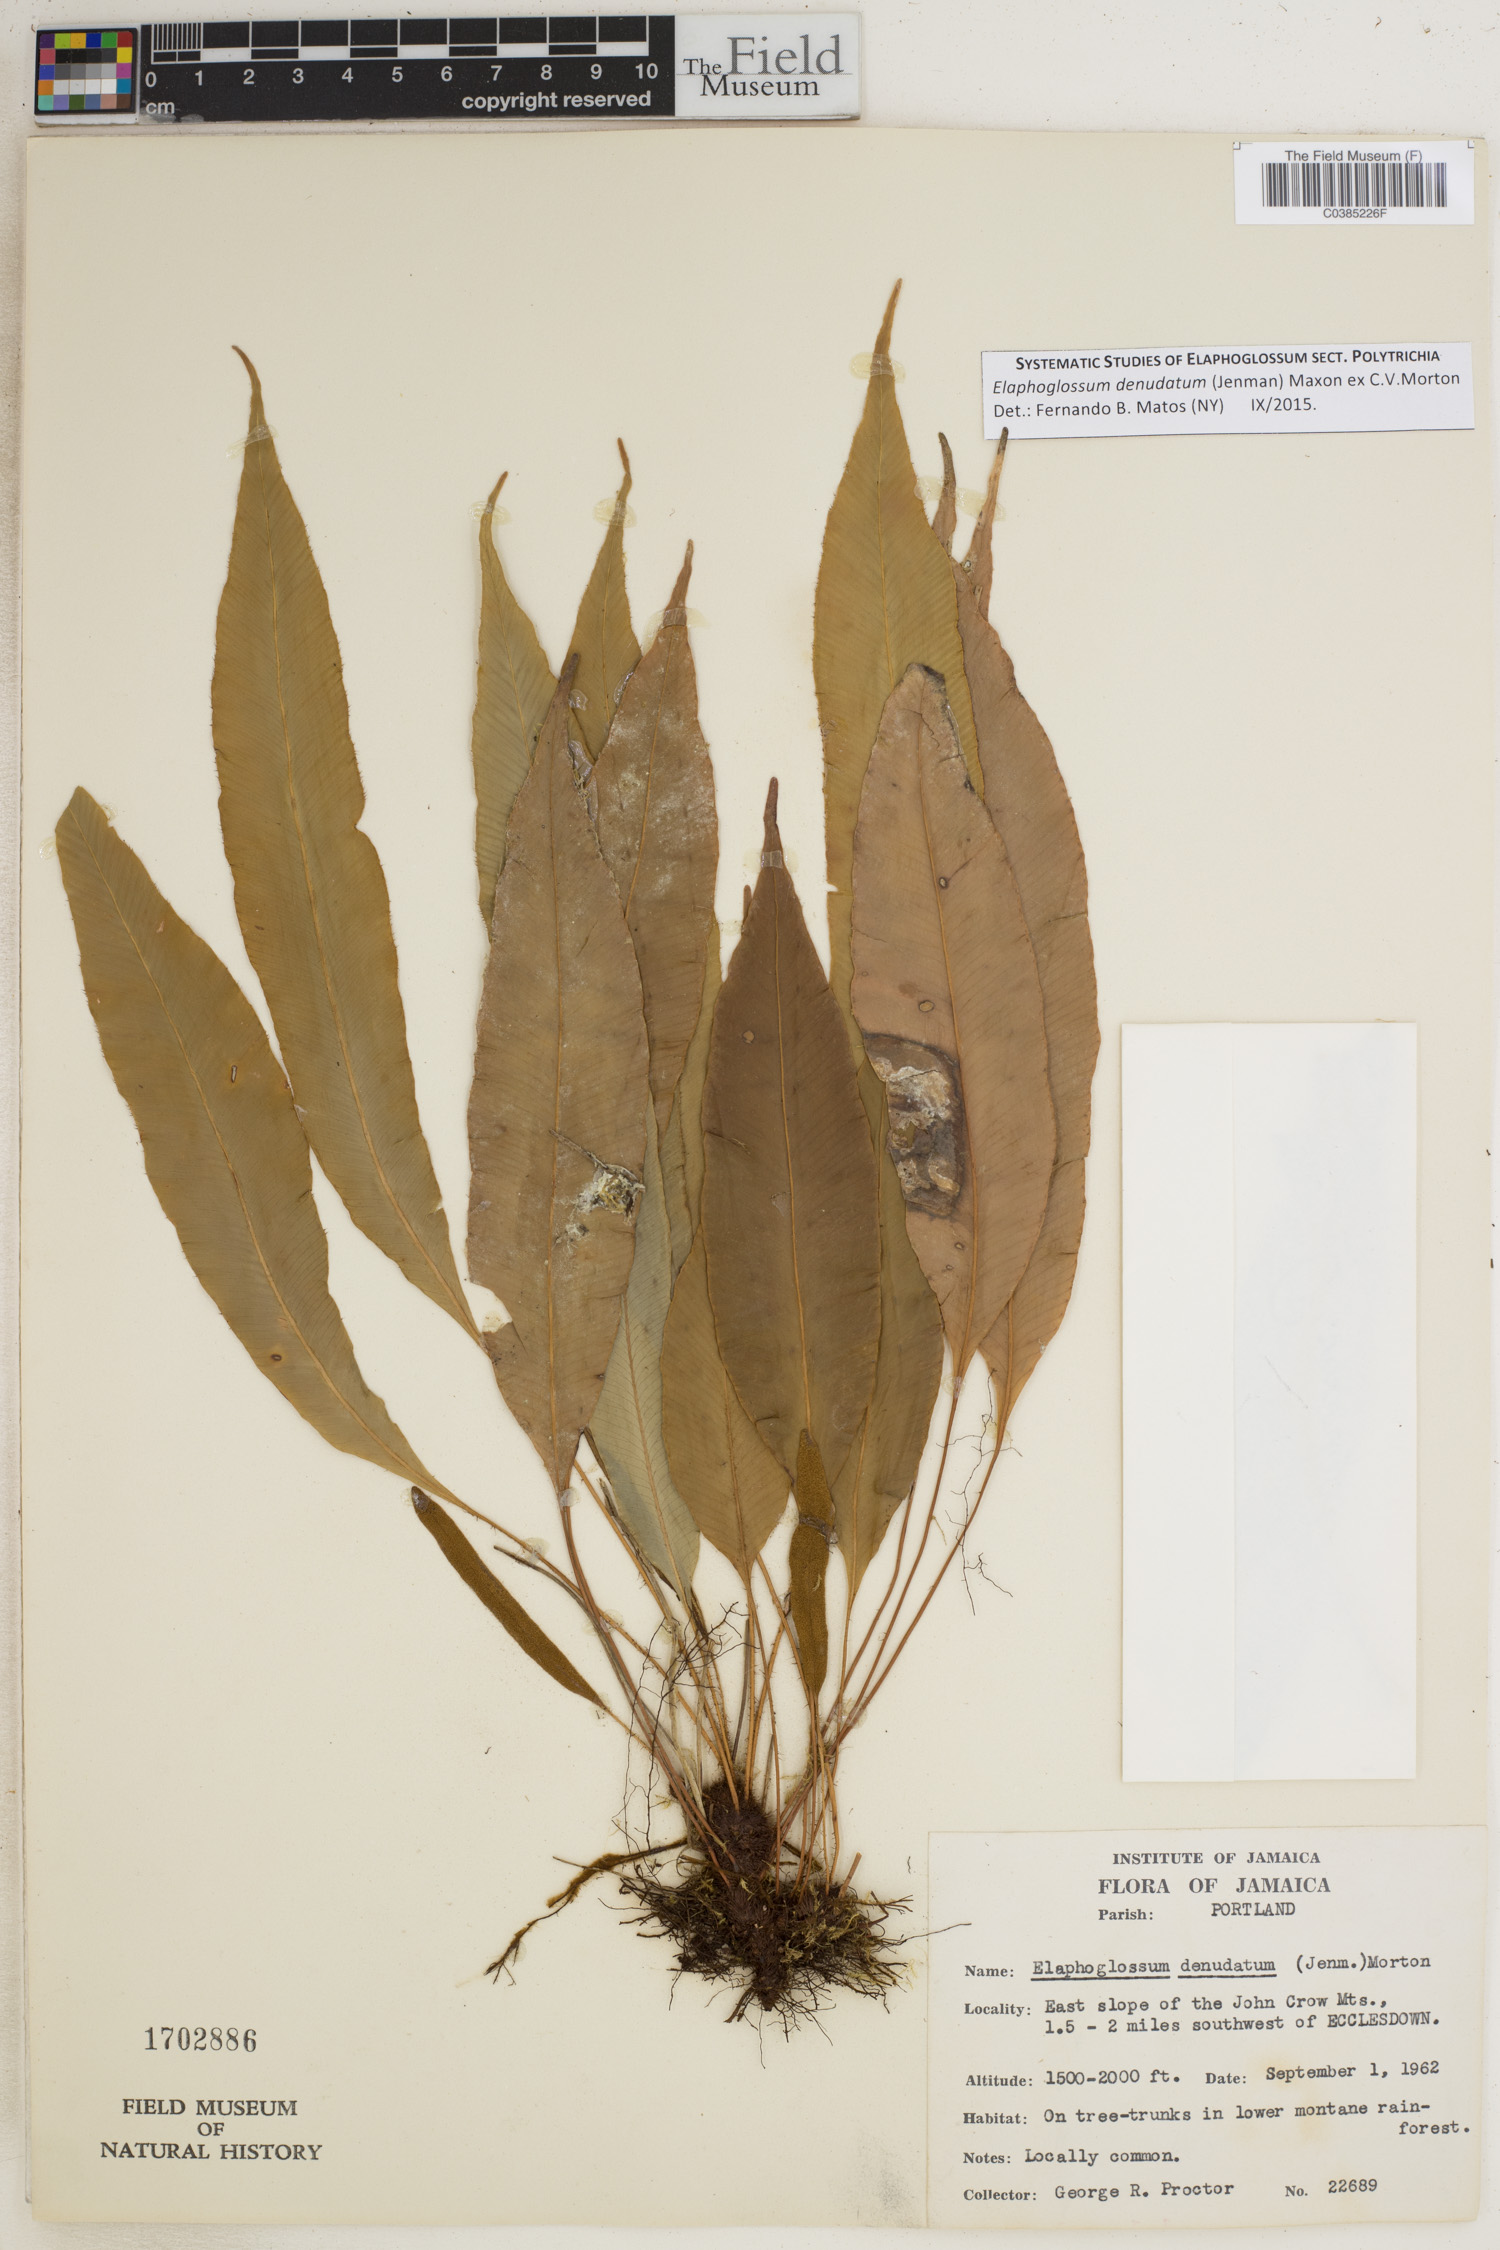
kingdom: Plantae
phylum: Tracheophyta
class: Polypodiopsida
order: Polypodiales
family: Dryopteridaceae
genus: Elaphoglossum
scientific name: Elaphoglossum denudatum
